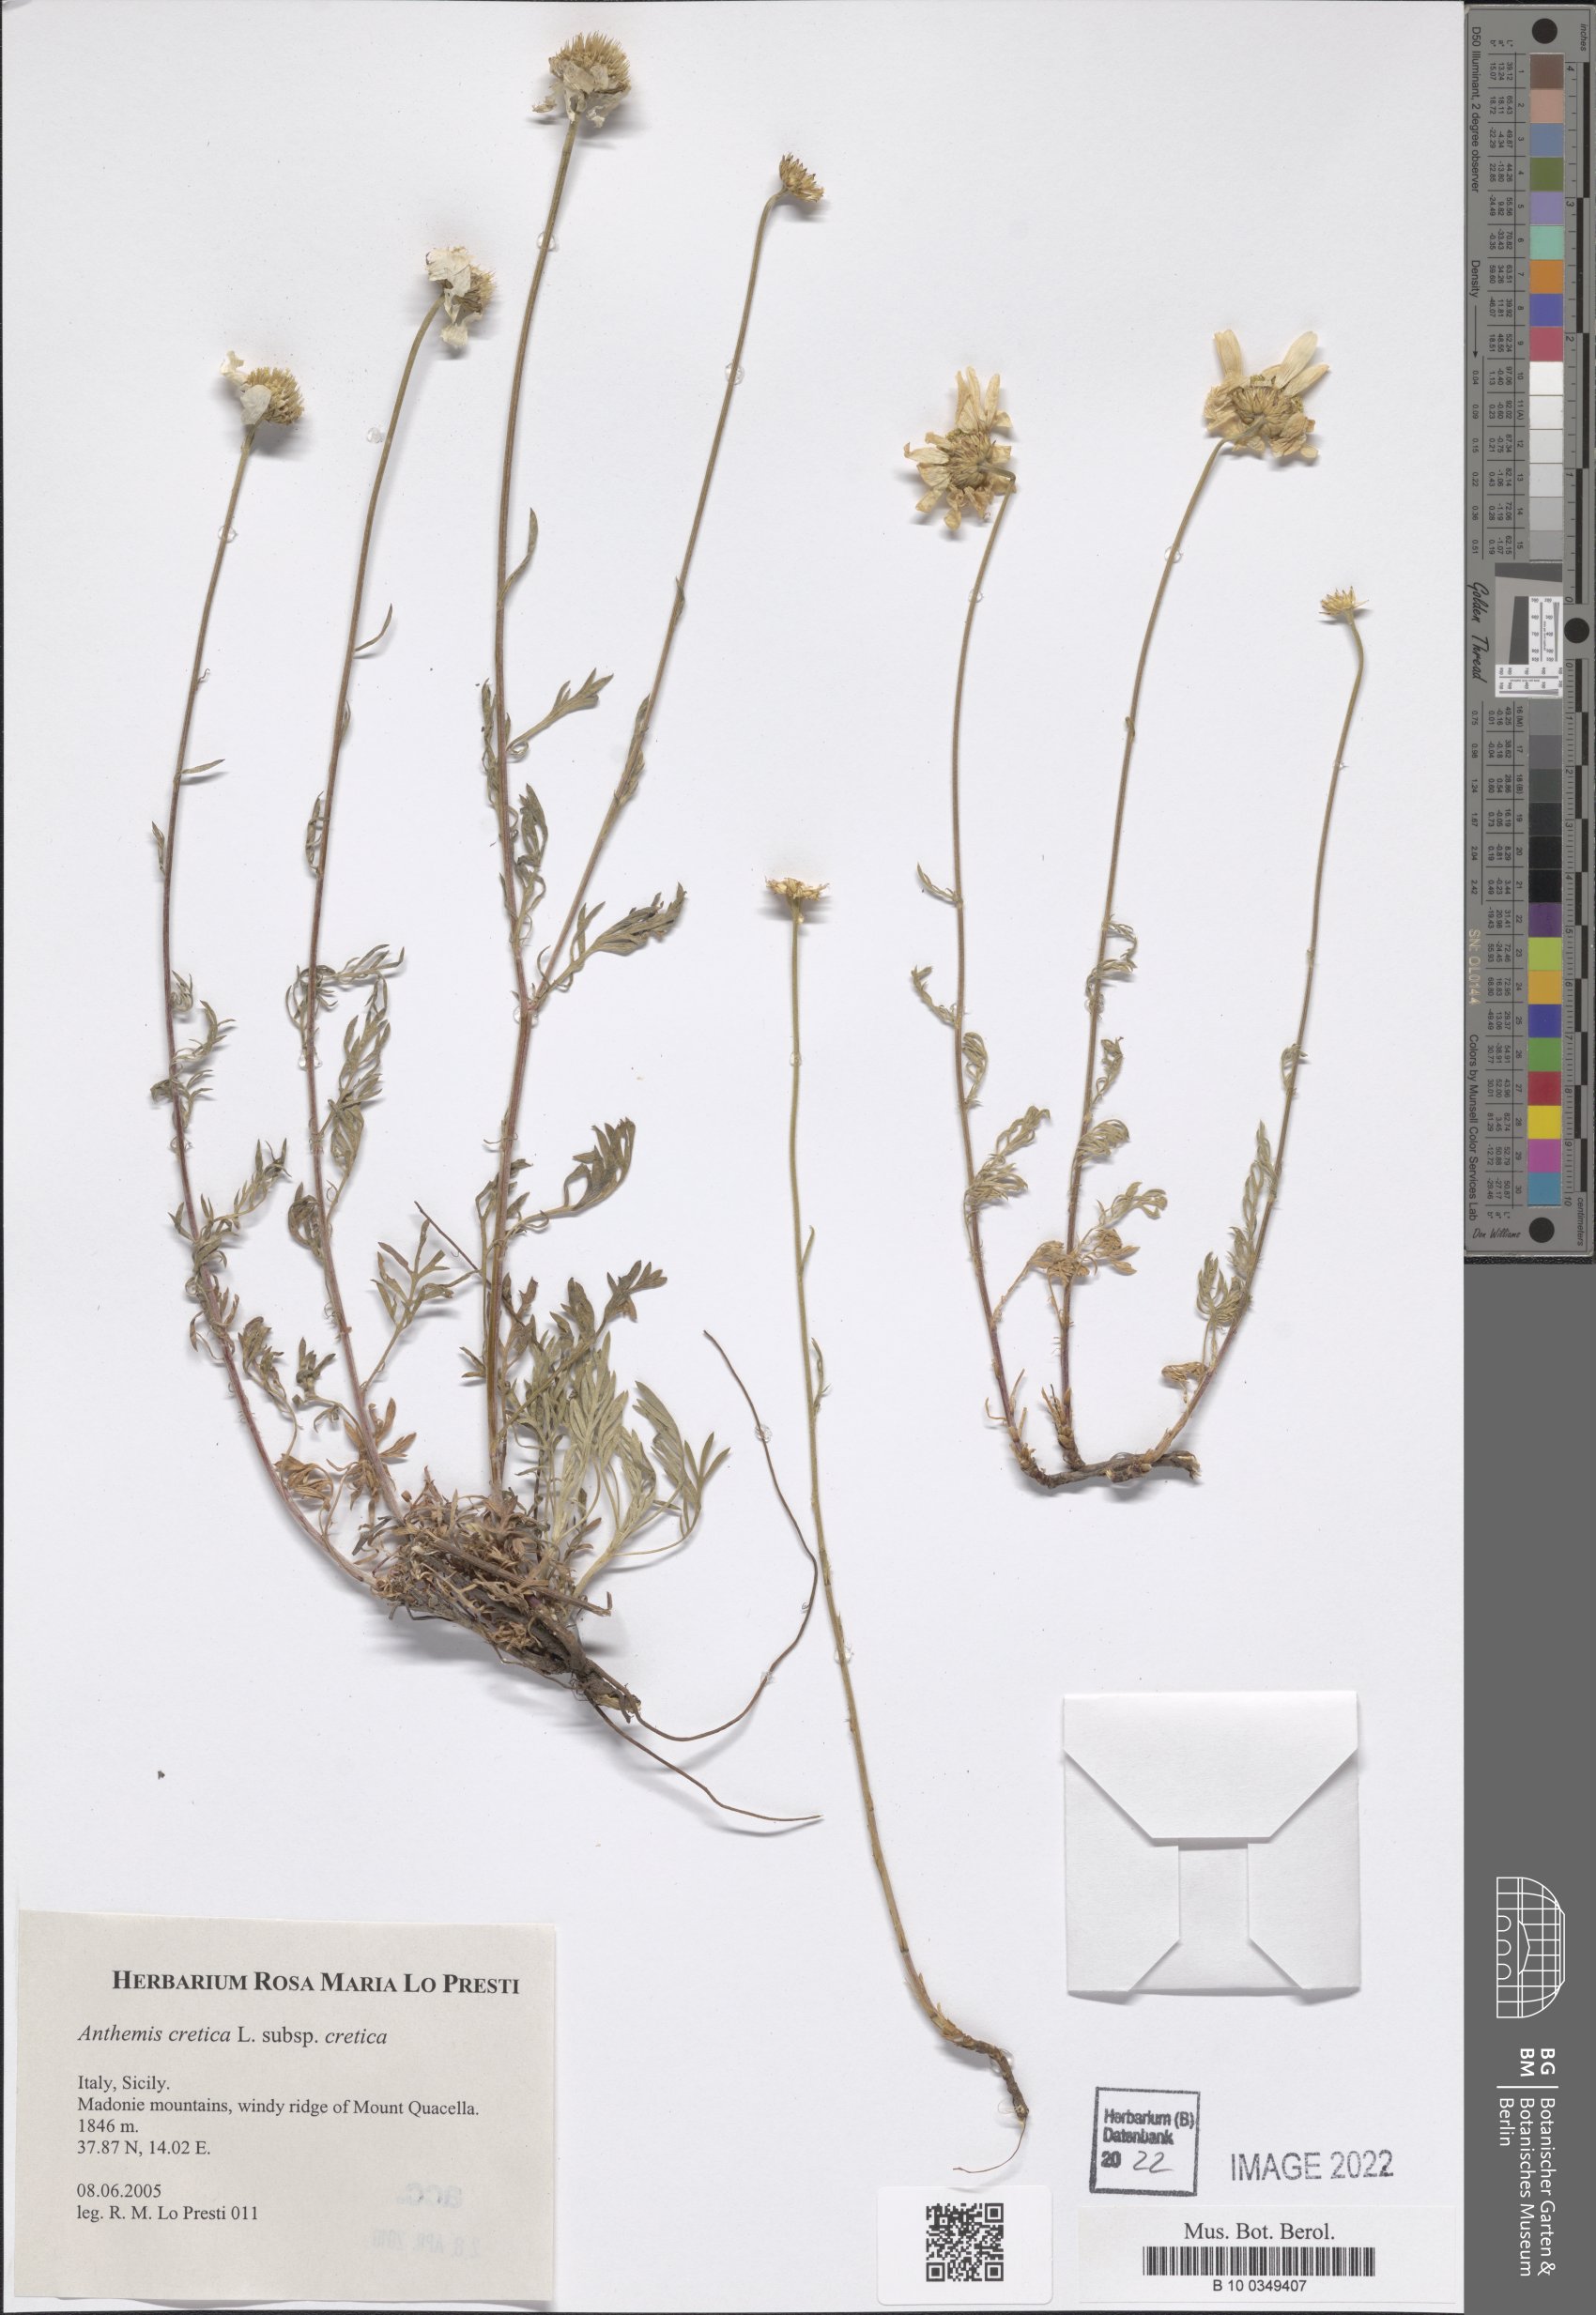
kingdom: Plantae
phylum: Tracheophyta
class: Magnoliopsida
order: Asterales
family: Asteraceae
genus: Anthemis
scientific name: Anthemis cretica
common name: Mountain dog-daisy
